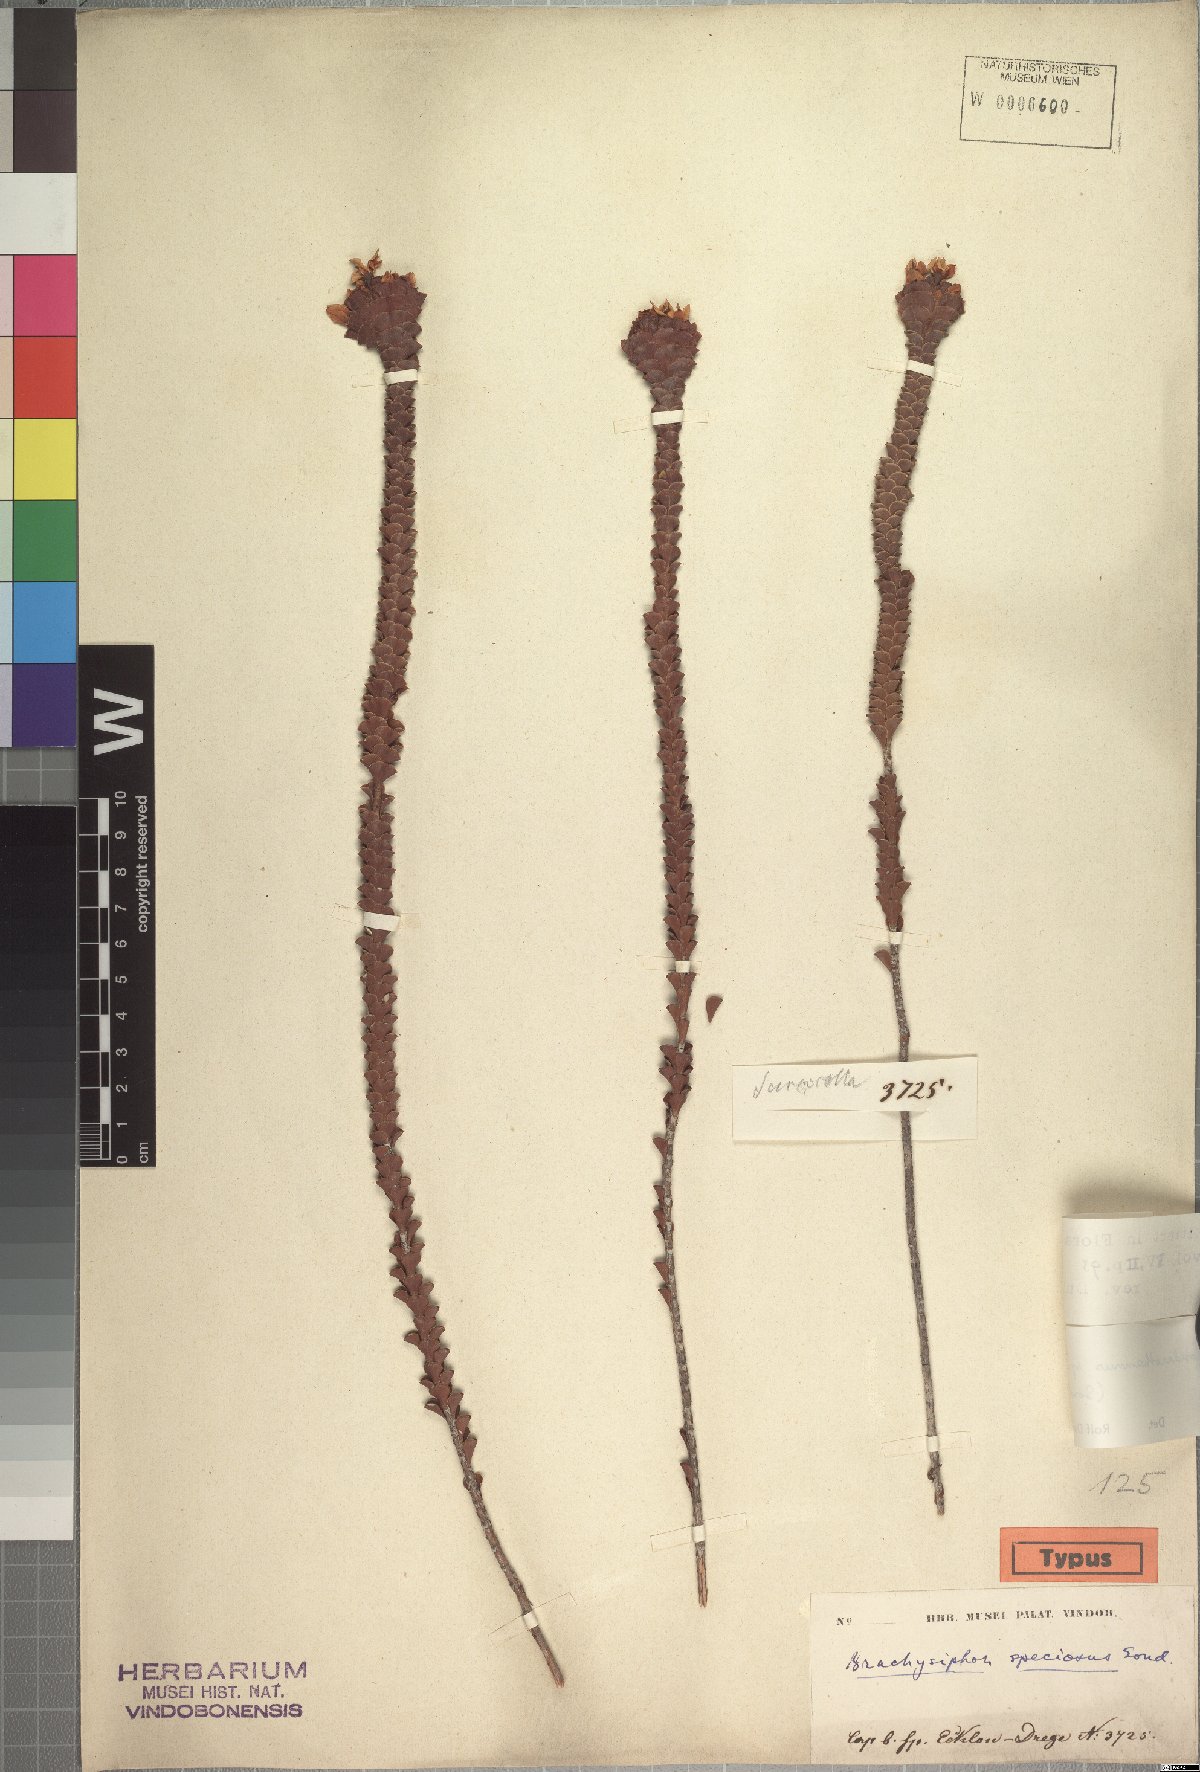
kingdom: Plantae
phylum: Tracheophyta
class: Magnoliopsida
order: Myrtales
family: Penaeaceae
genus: Sonderothamnus
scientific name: Sonderothamnus speciosus
